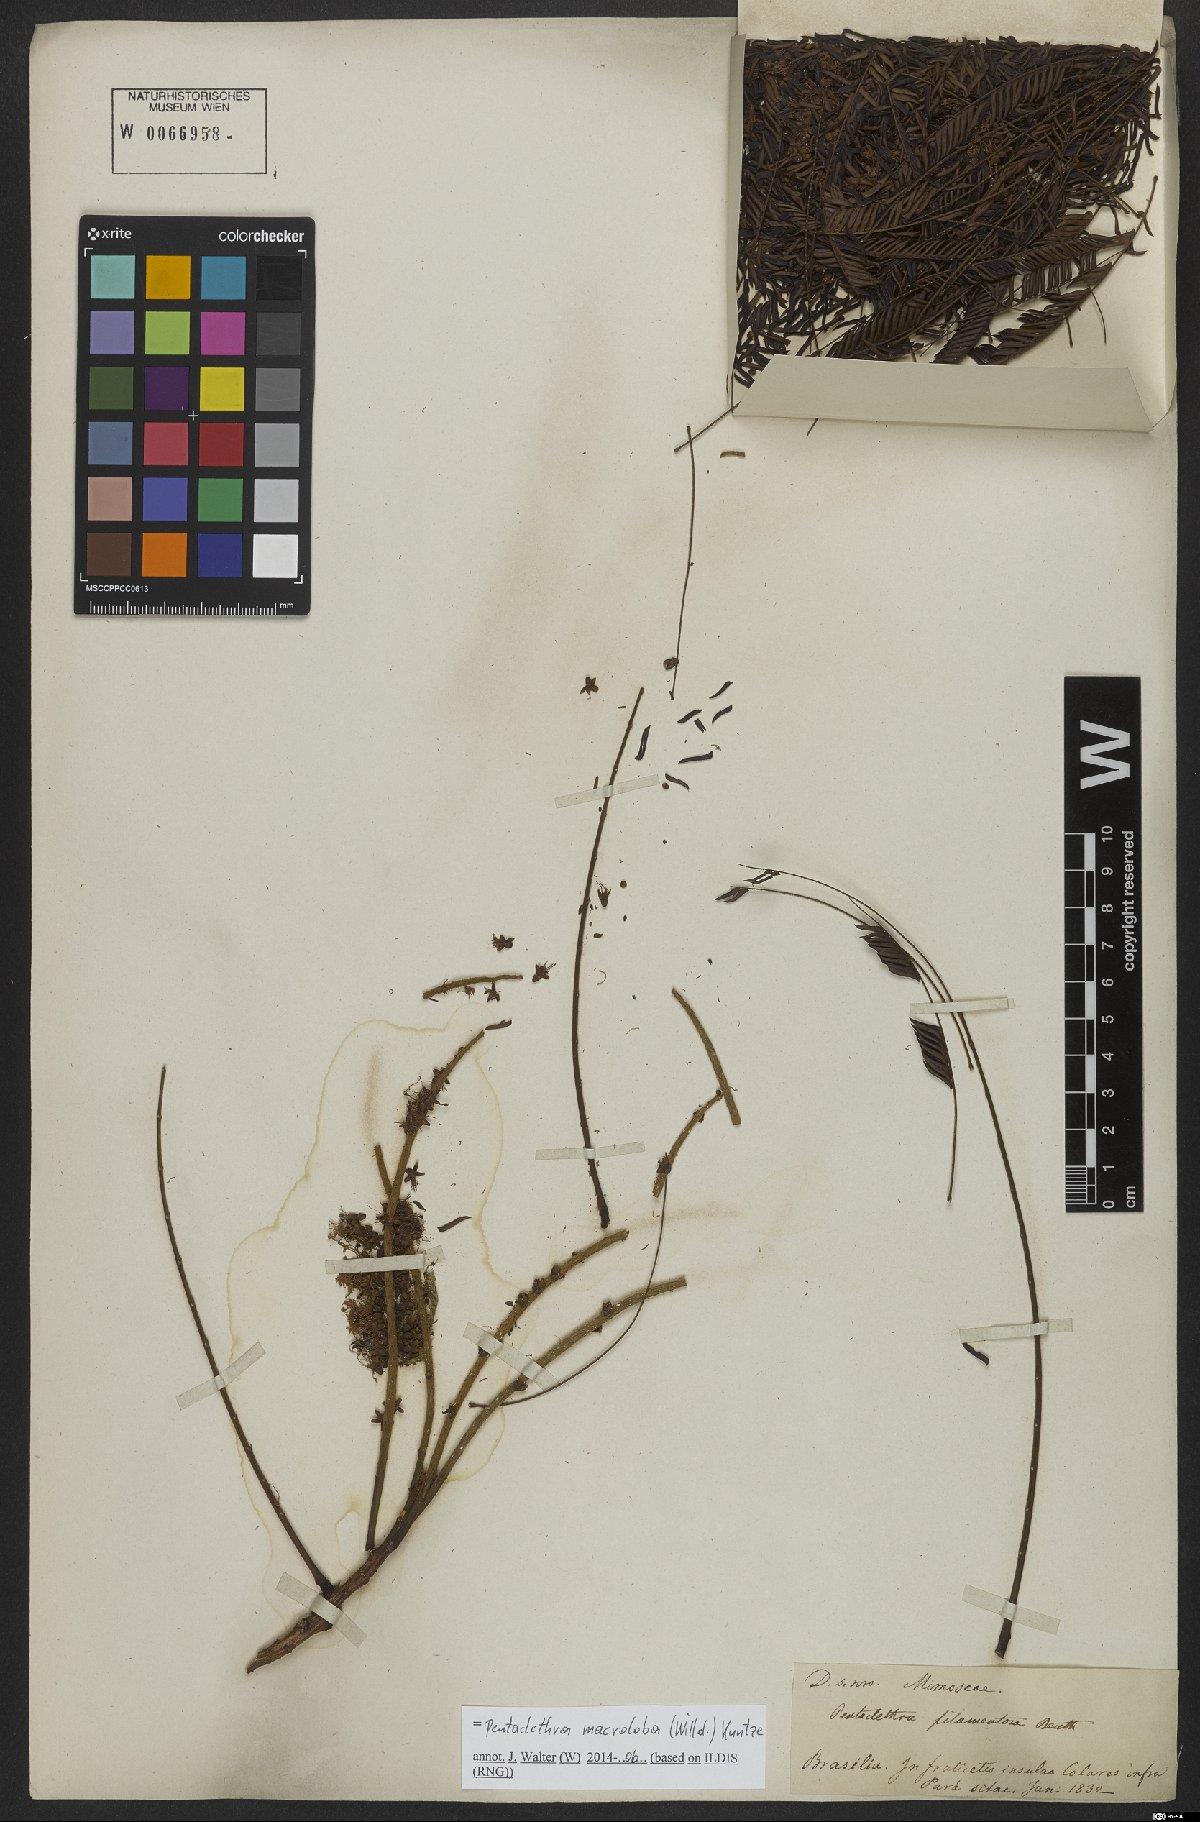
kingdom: Plantae
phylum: Tracheophyta
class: Magnoliopsida
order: Fabales
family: Fabaceae
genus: Pentaclethra
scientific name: Pentaclethra macroloba
